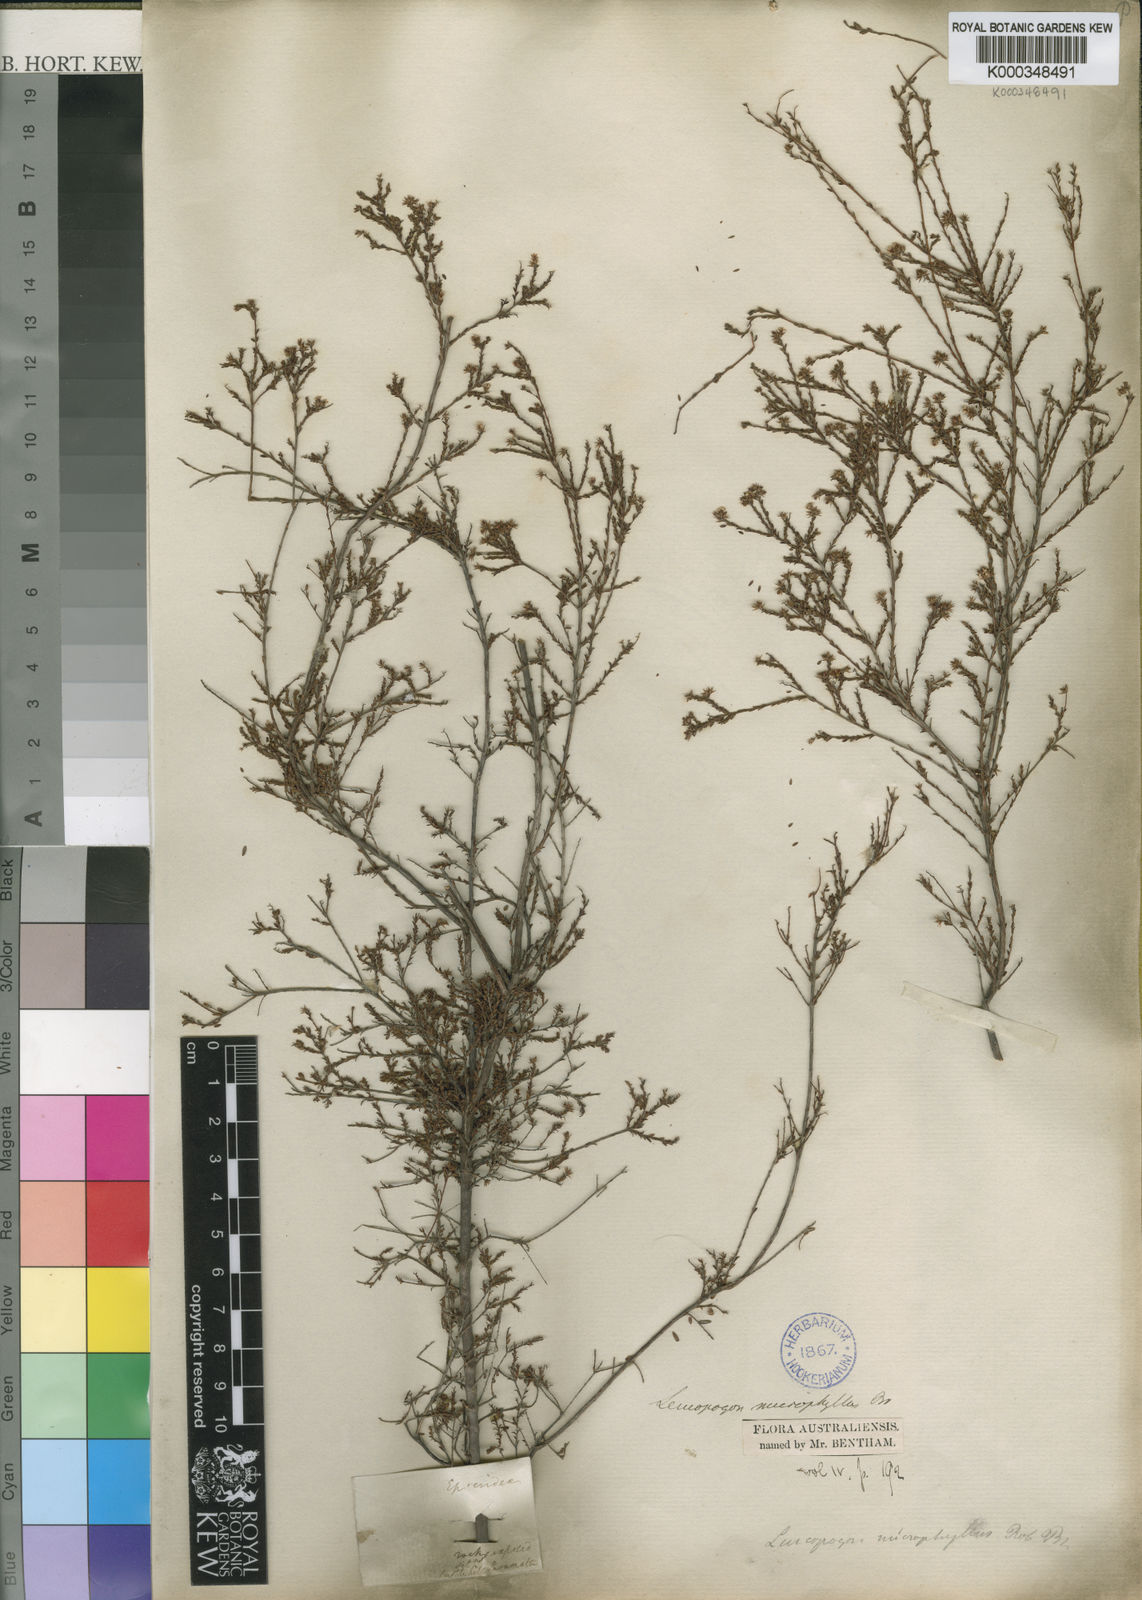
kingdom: Plantae
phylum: Tracheophyta
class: Magnoliopsida
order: Ericales
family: Ericaceae
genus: Leucopogon
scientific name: Leucopogon microphyllus
